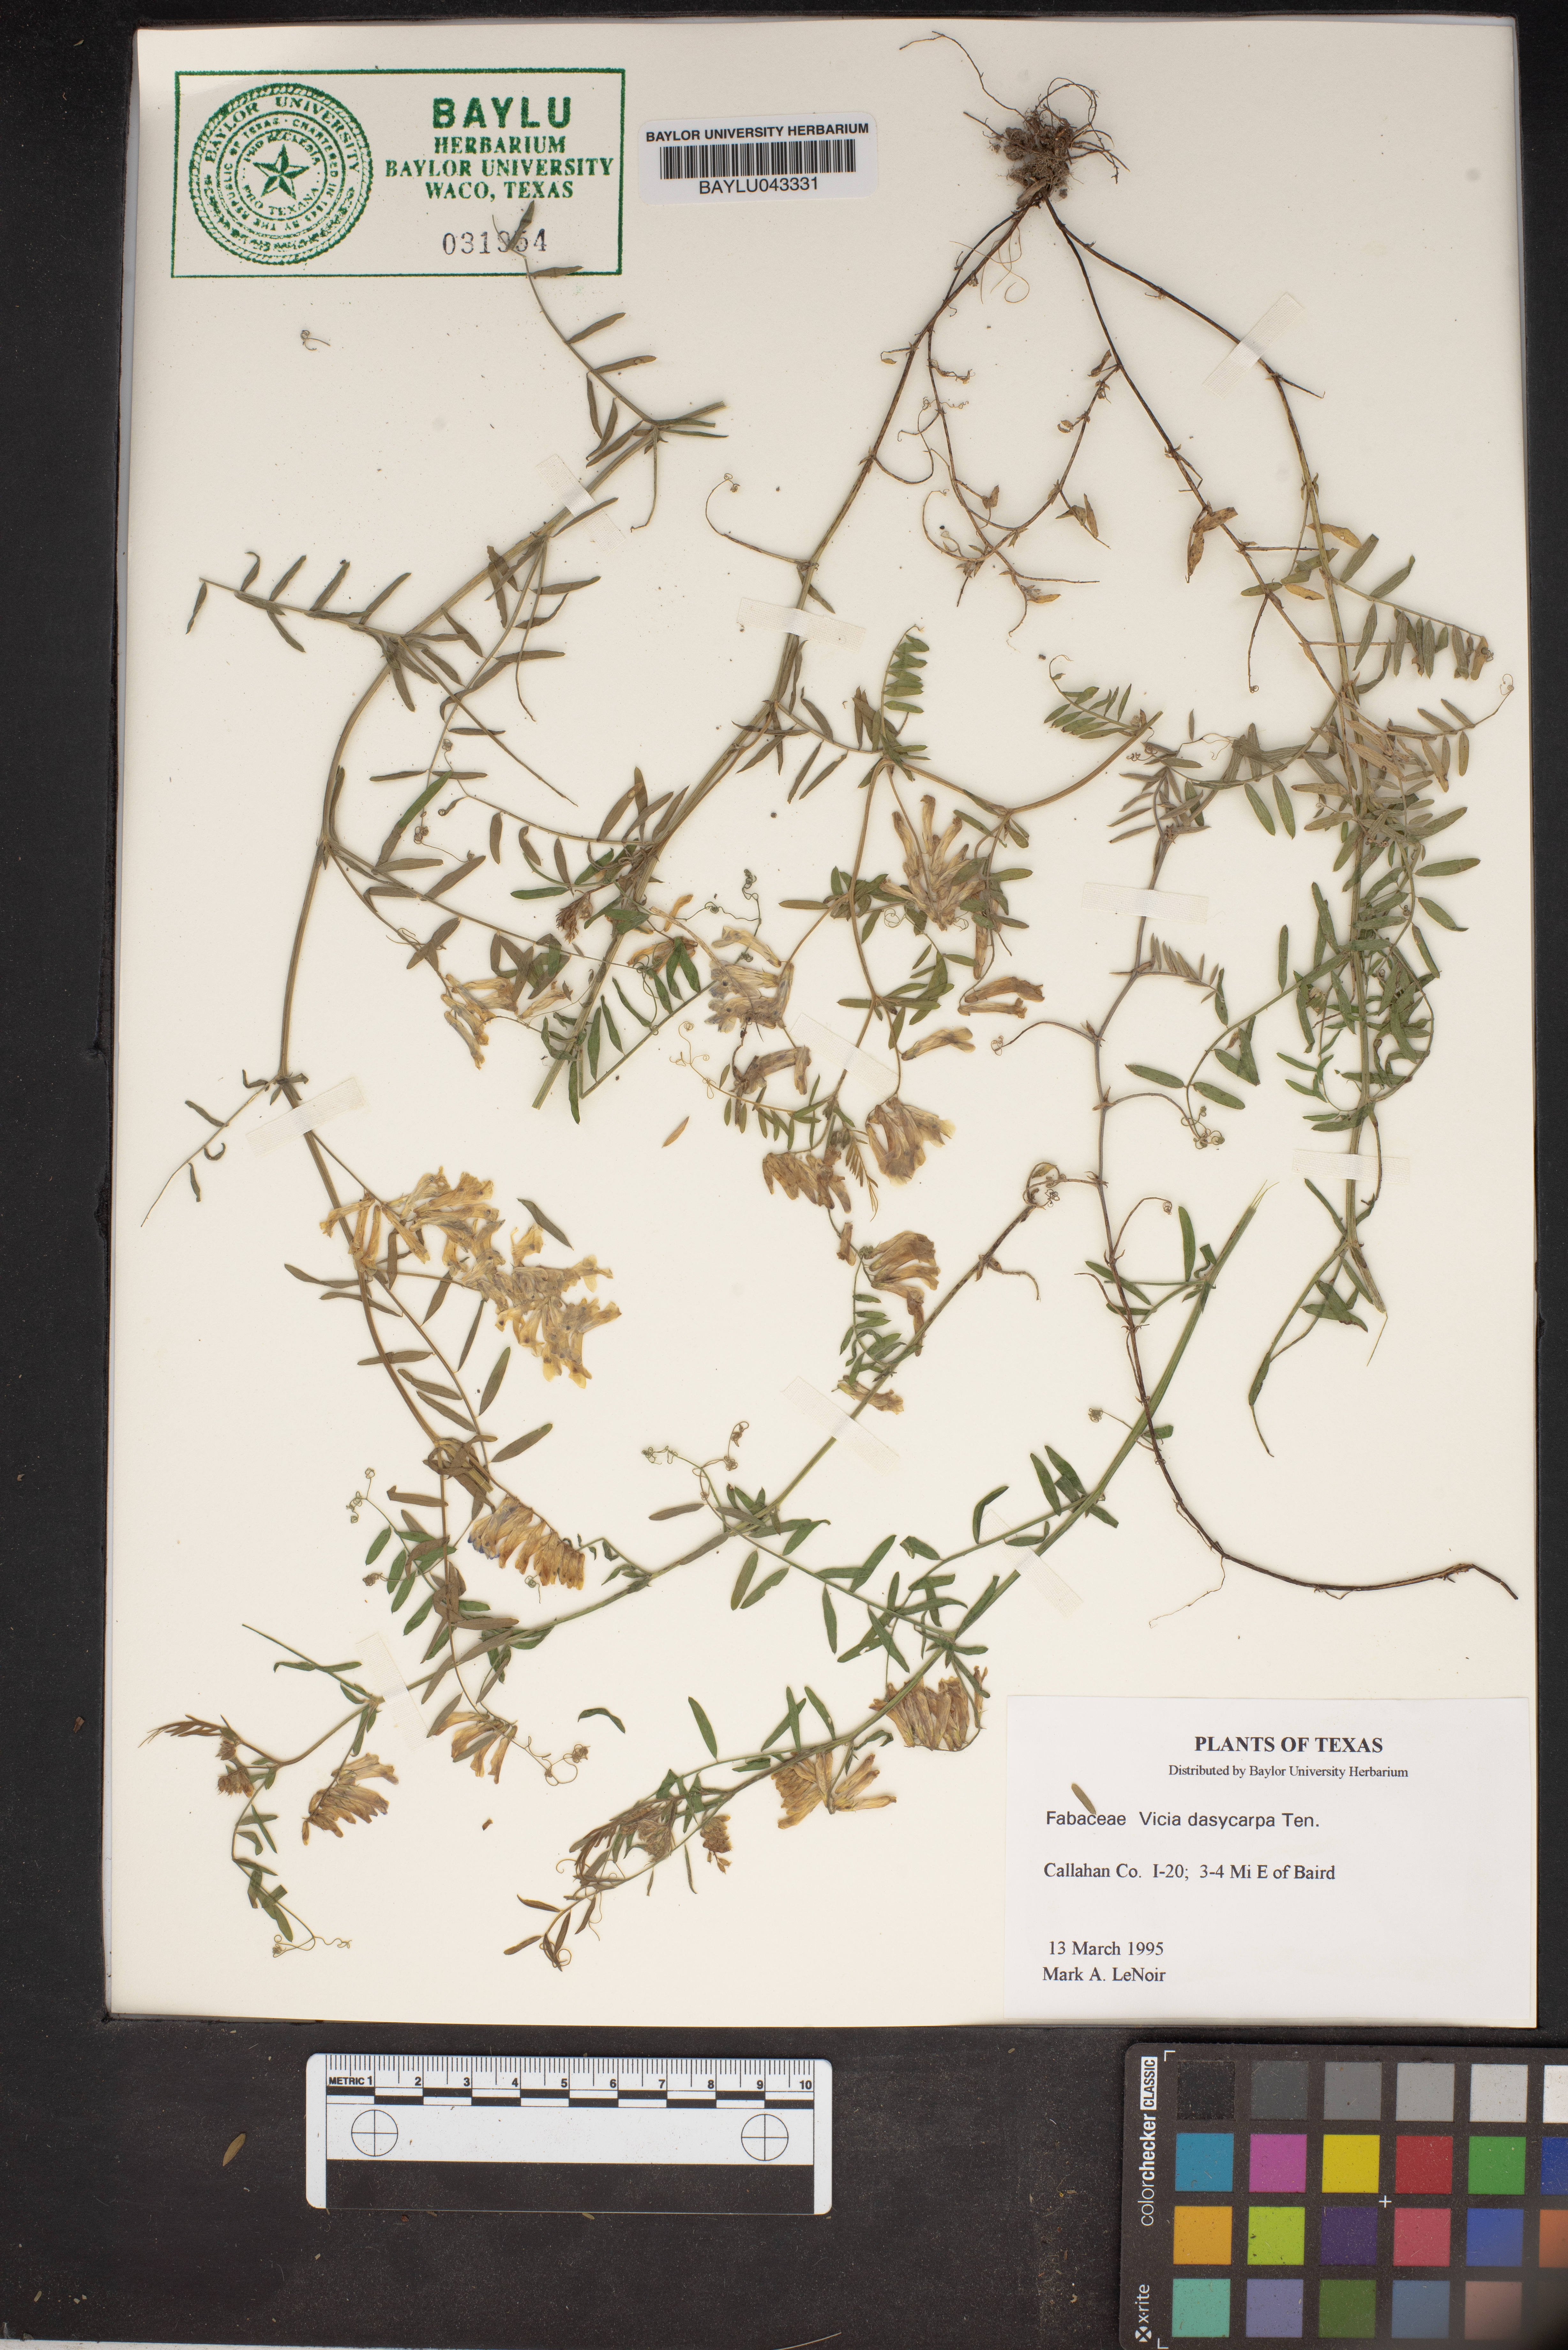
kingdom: Plantae
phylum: Tracheophyta
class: Magnoliopsida
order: Fabales
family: Fabaceae
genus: Vicia
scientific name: Vicia villosa
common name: Fodder vetch
